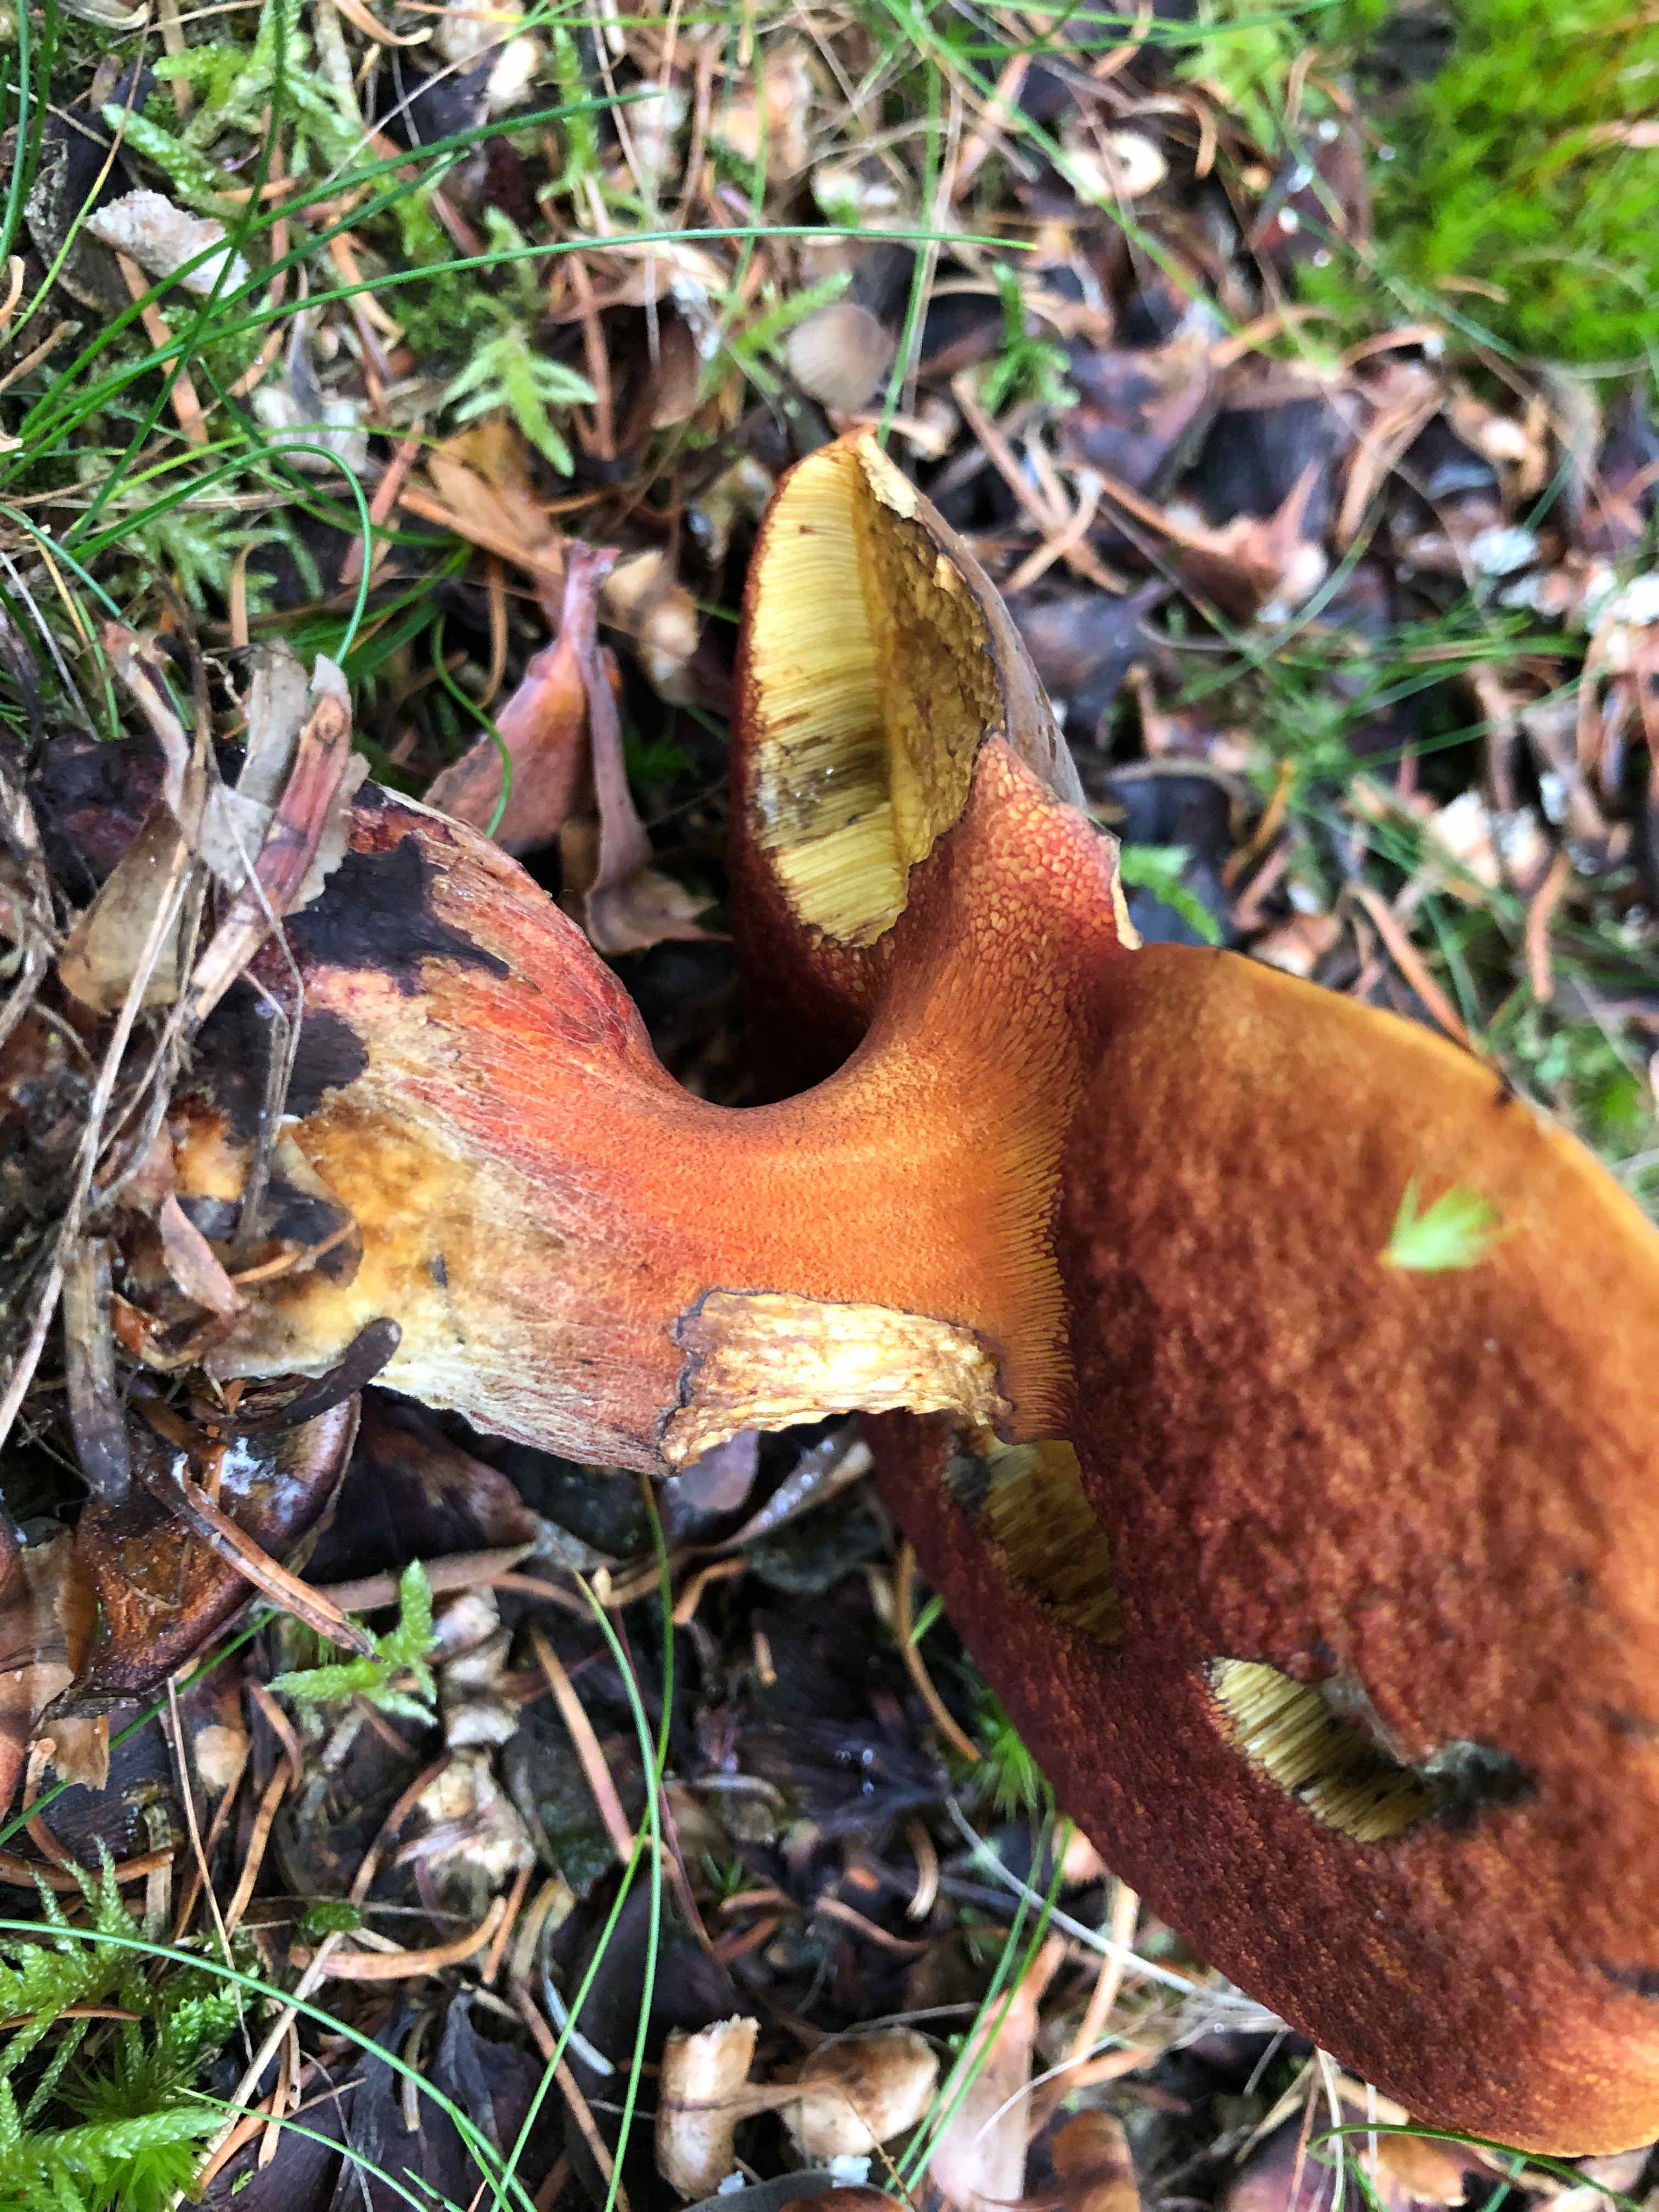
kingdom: Fungi
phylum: Basidiomycota
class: Agaricomycetes
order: Boletales
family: Boletaceae
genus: Neoboletus
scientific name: Neoboletus erythropus
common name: punktstokket indigorørhat
